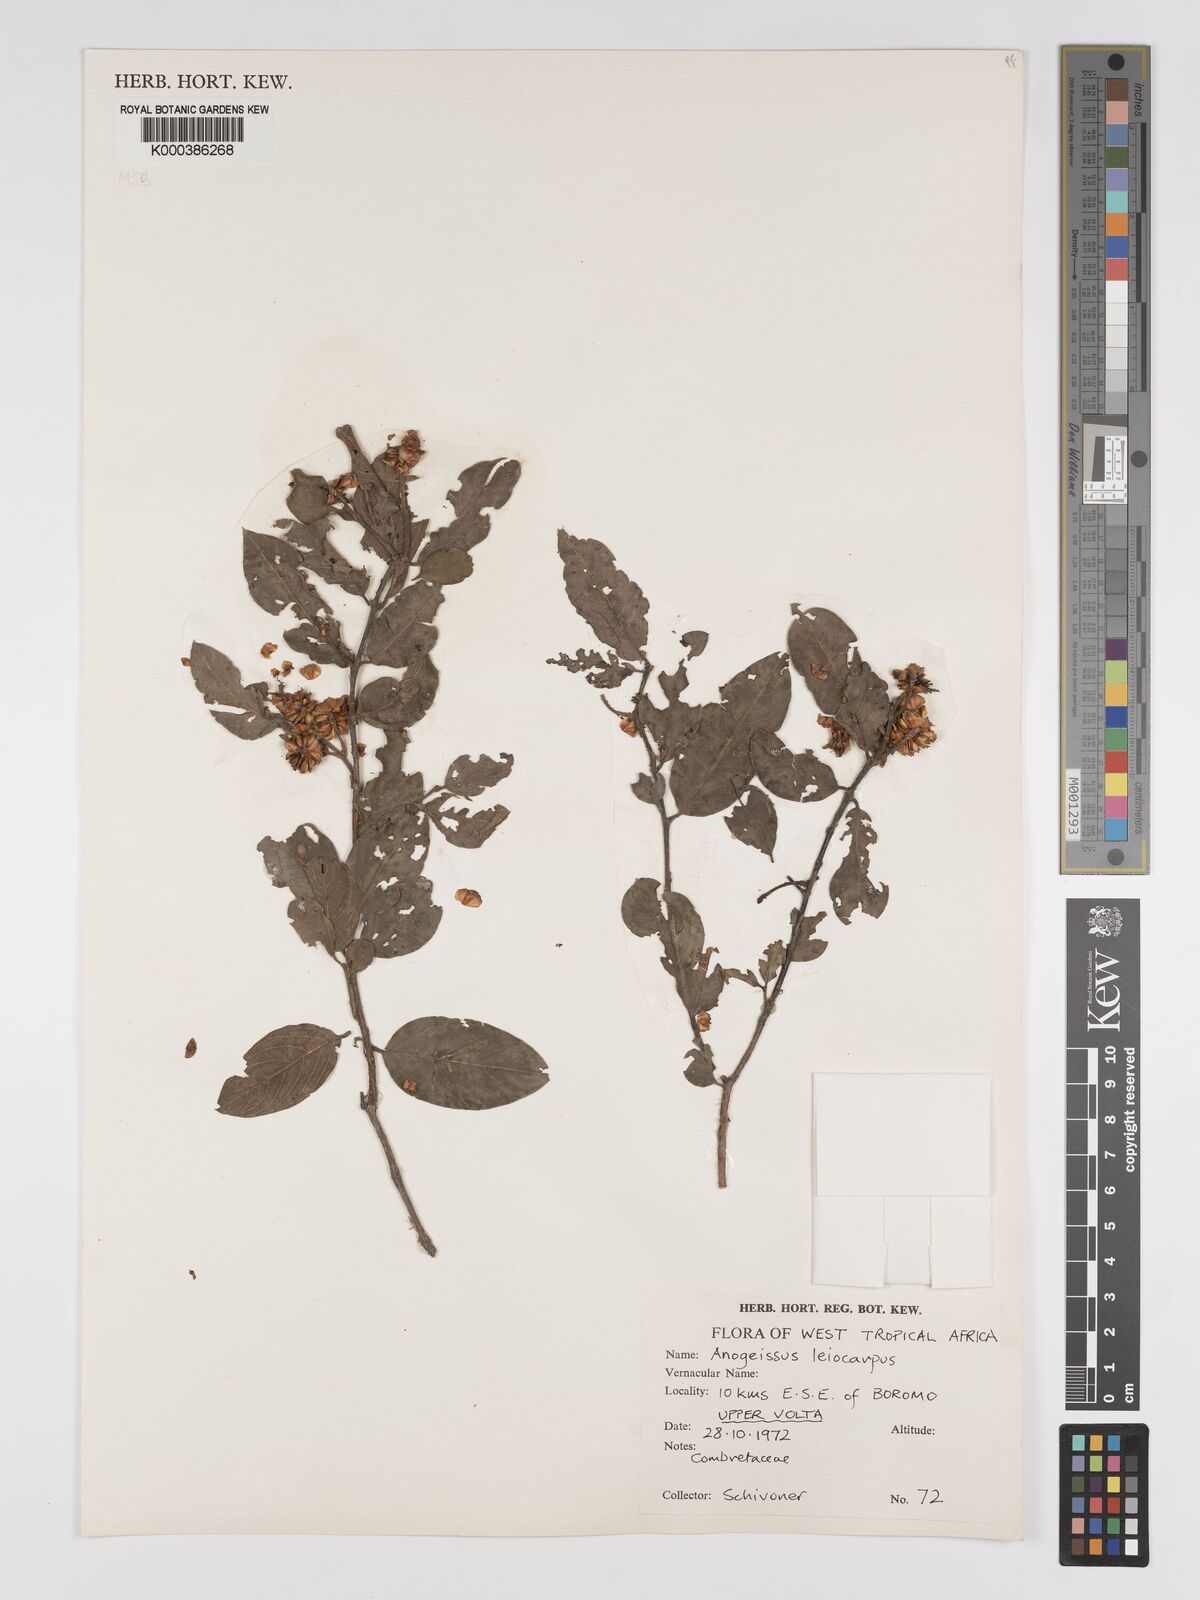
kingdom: Plantae
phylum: Tracheophyta
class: Magnoliopsida
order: Myrtales
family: Combretaceae
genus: Terminalia
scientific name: Terminalia leiocarpa
